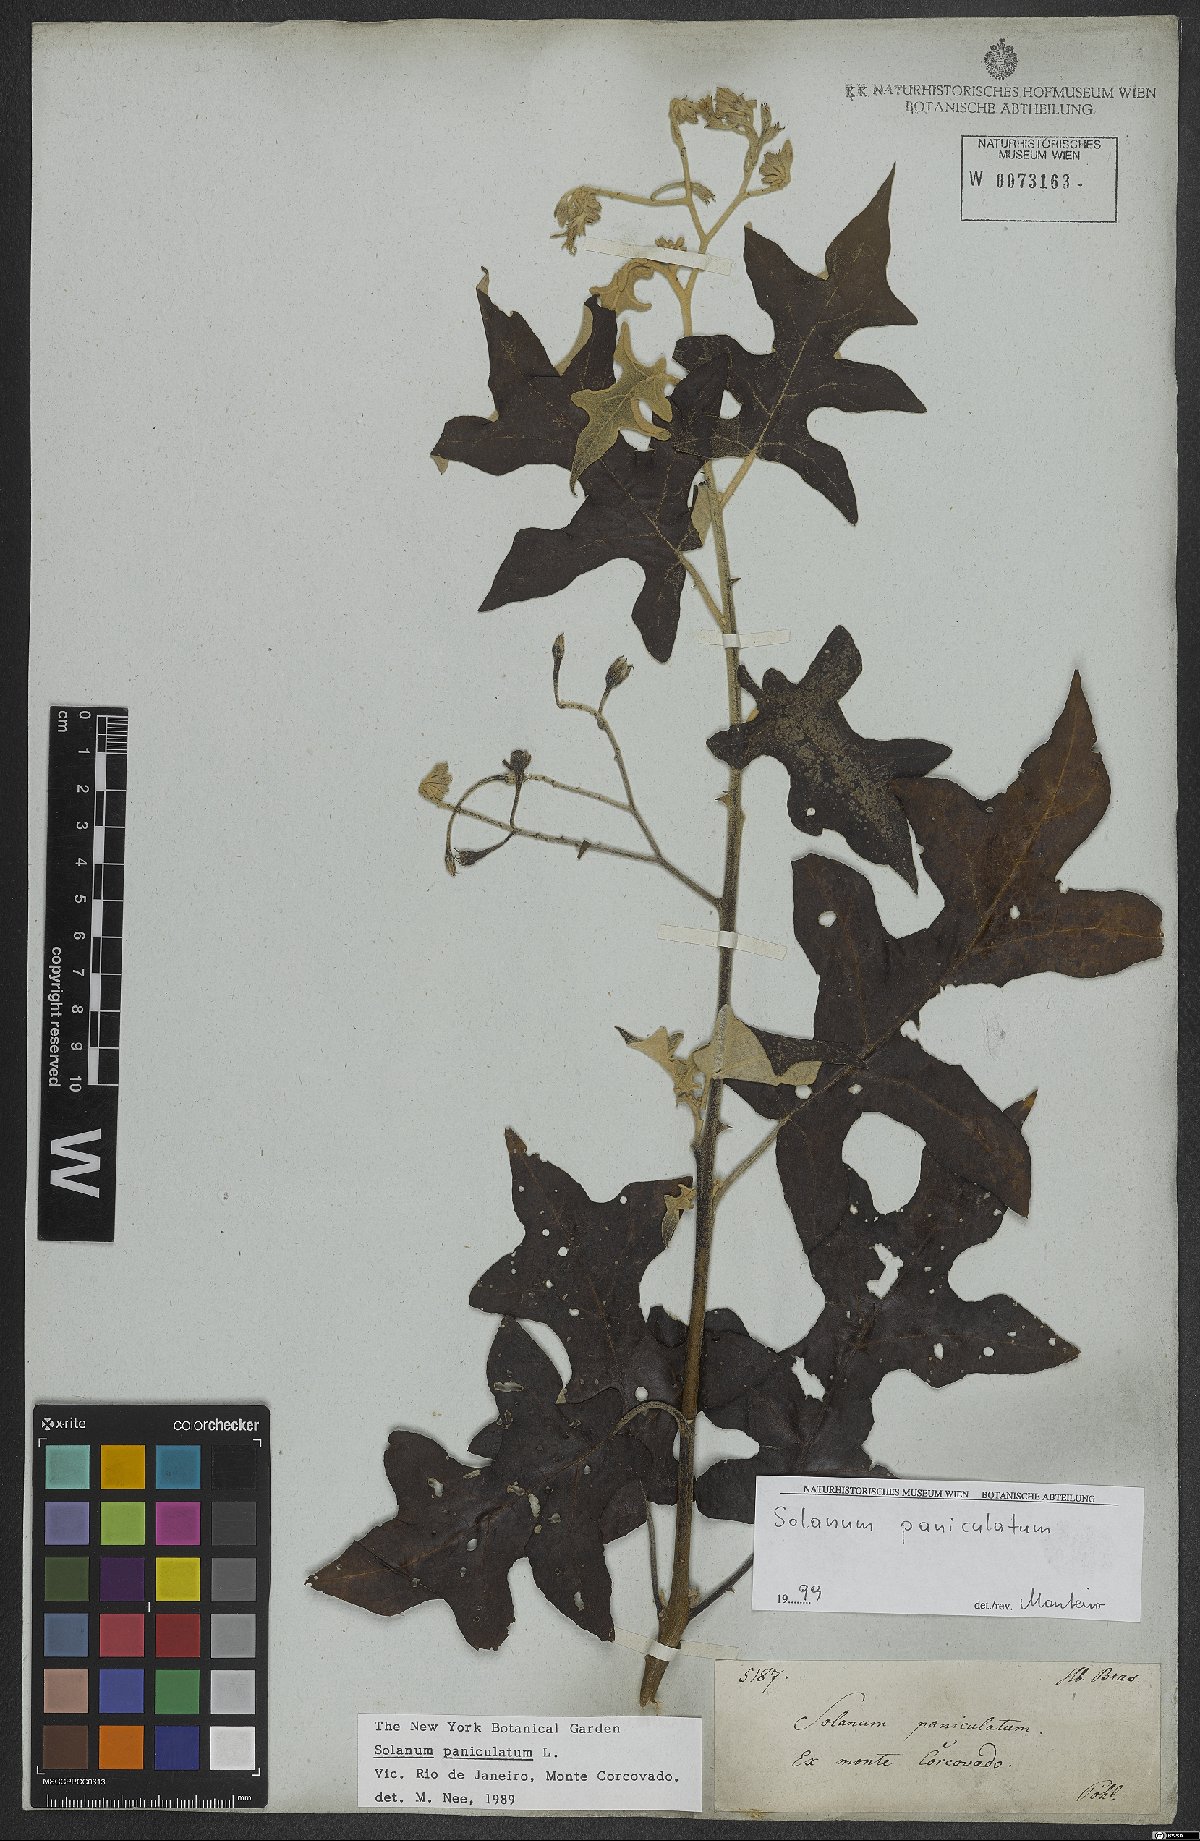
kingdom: Plantae
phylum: Tracheophyta
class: Magnoliopsida
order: Solanales
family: Solanaceae
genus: Solanum
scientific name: Solanum paniculatum
